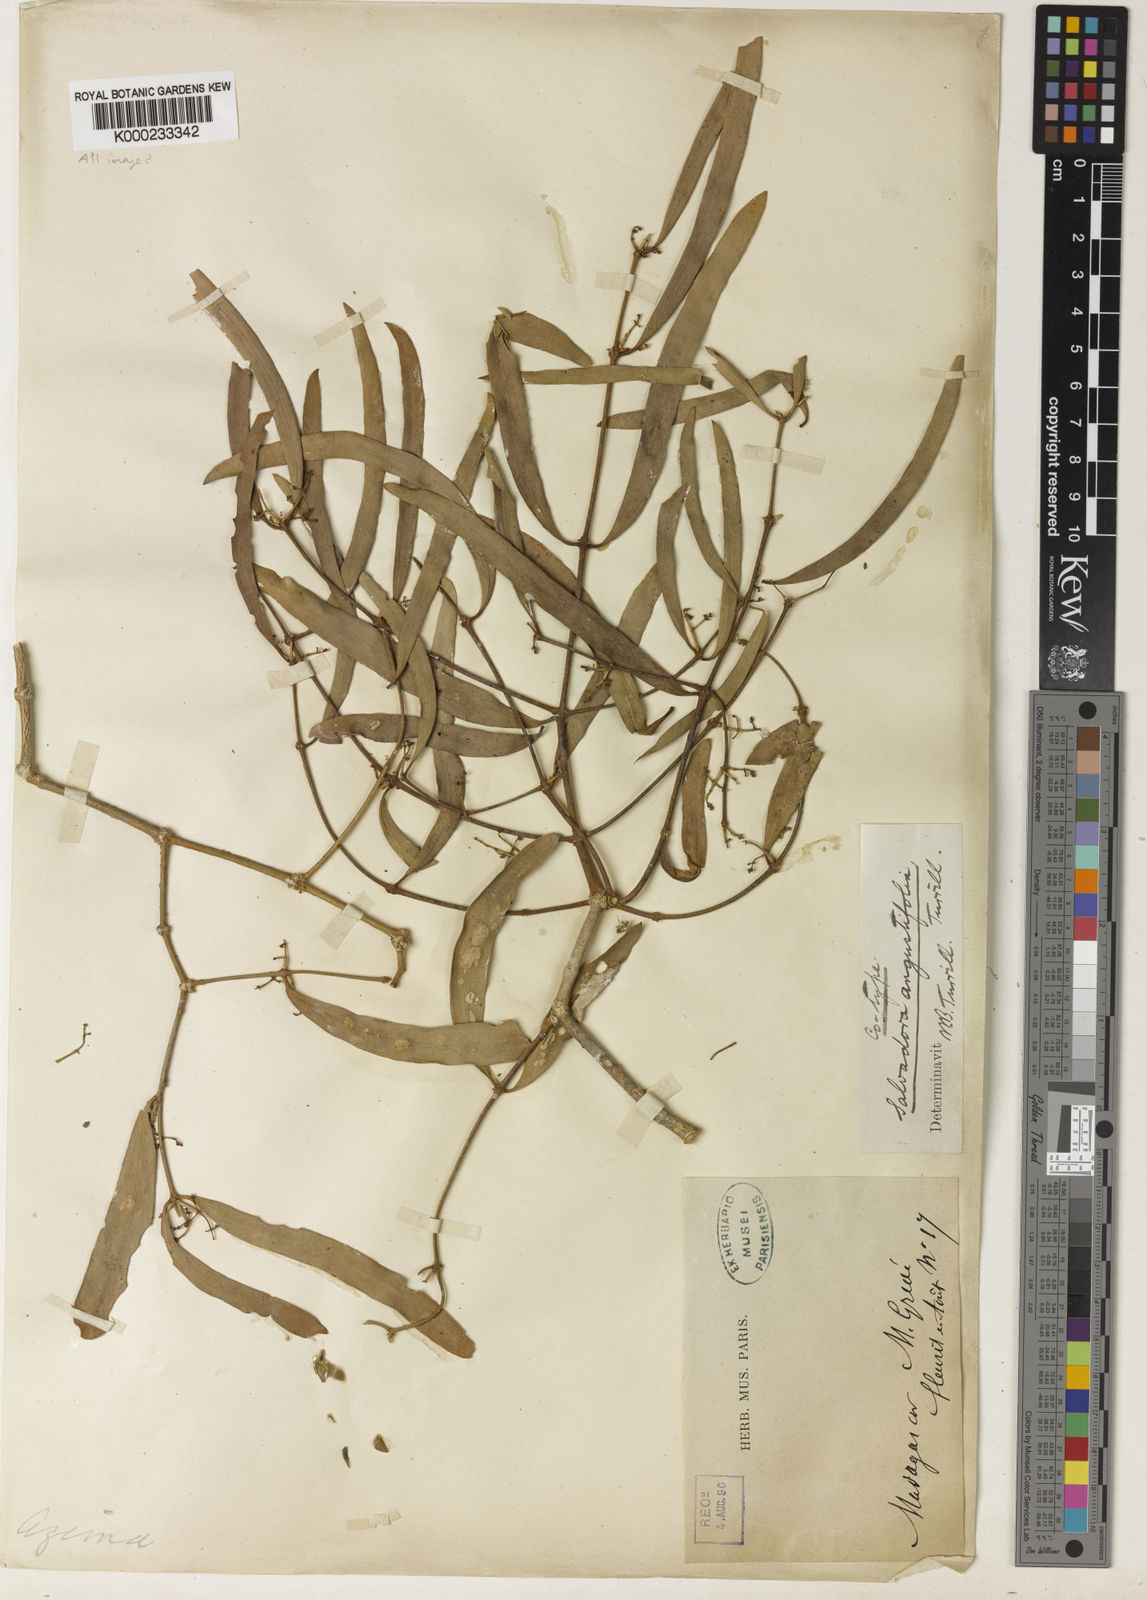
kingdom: Plantae
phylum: Tracheophyta
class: Magnoliopsida
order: Brassicales
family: Salvadoraceae
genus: Salvadora
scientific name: Salvadora angustifolia
